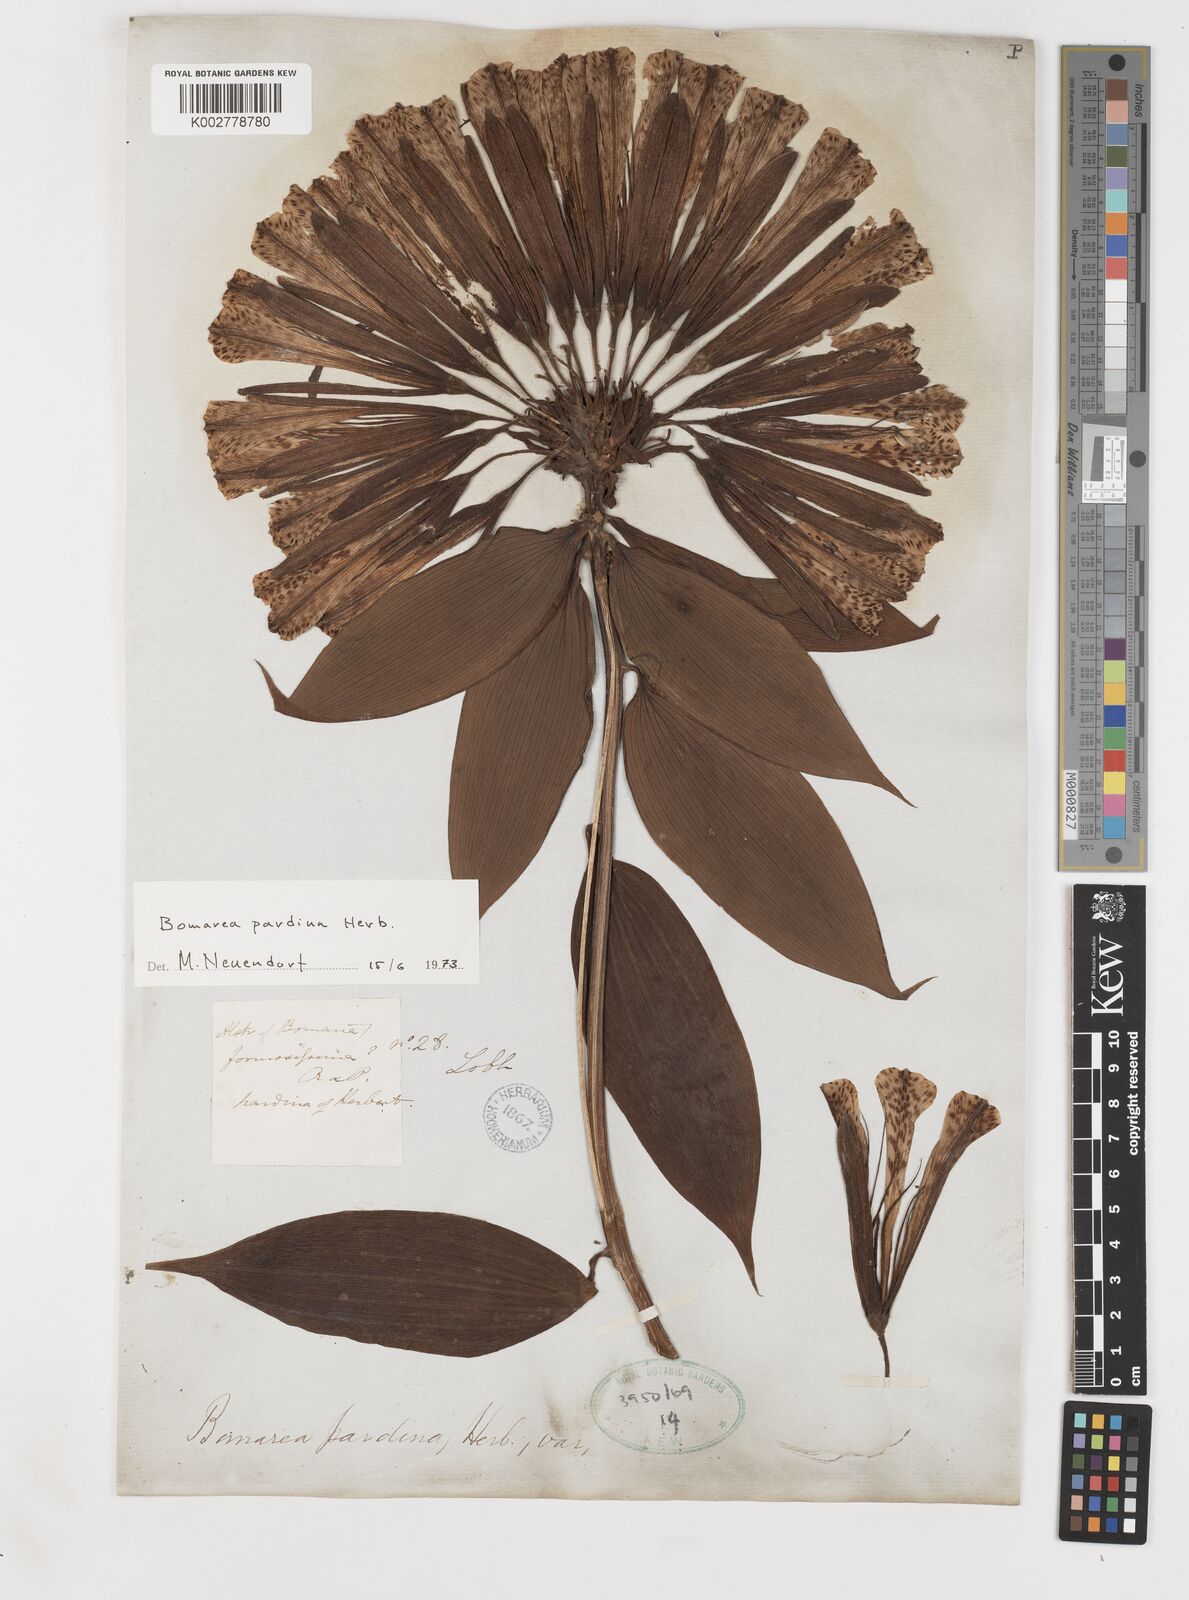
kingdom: Plantae
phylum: Tracheophyta
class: Liliopsida
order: Liliales
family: Alstroemeriaceae
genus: Bomarea
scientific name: Bomarea pardina
